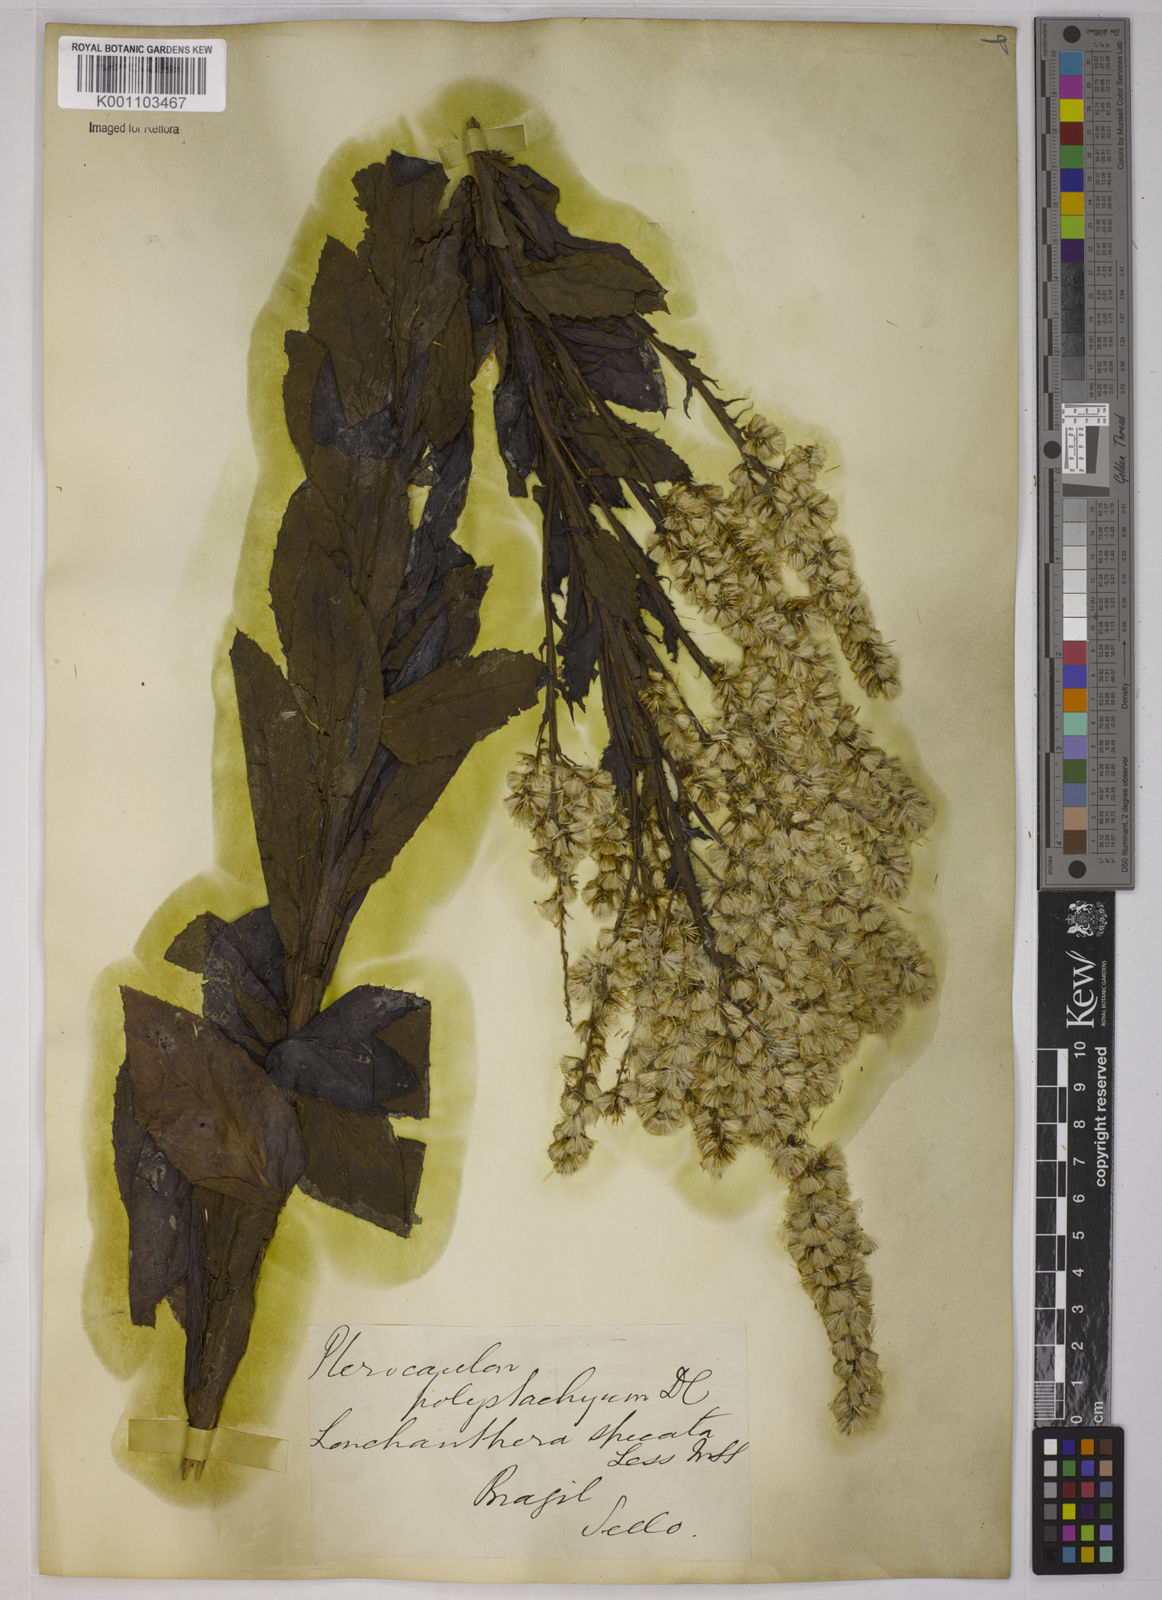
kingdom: Plantae
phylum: Tracheophyta
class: Magnoliopsida
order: Asterales
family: Asteraceae
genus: Pterocaulon
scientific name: Pterocaulon polystachyum
